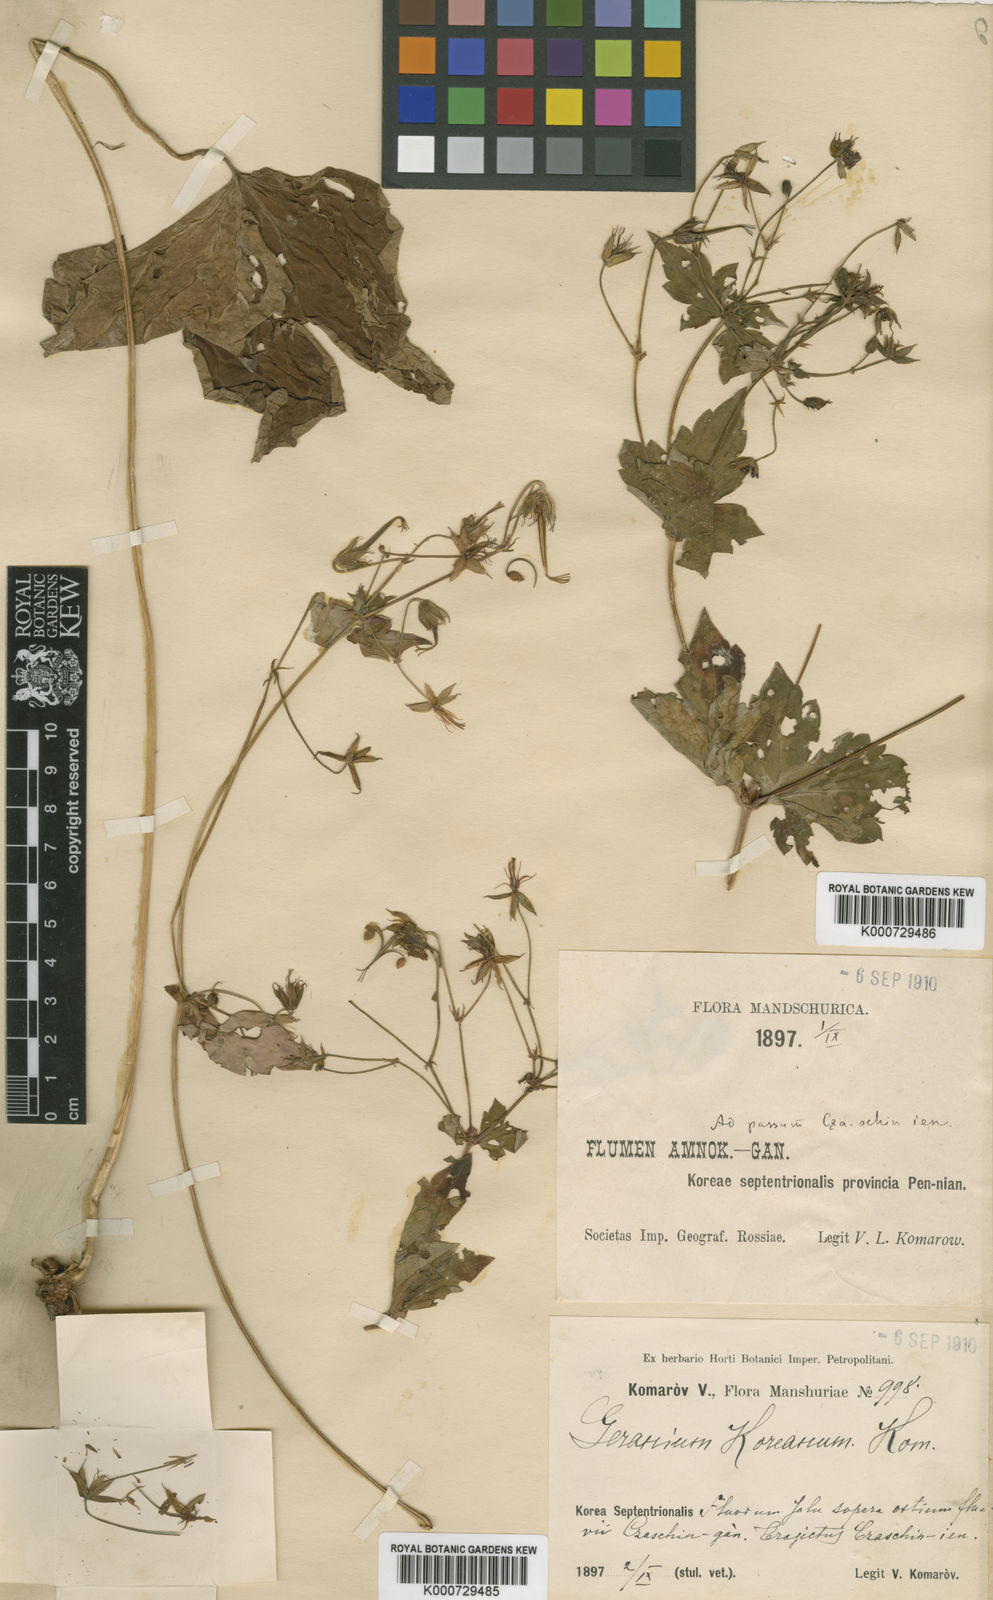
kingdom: Plantae
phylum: Tracheophyta
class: Magnoliopsida
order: Geraniales
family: Geraniaceae
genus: Geranium
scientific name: Geranium koreanum
